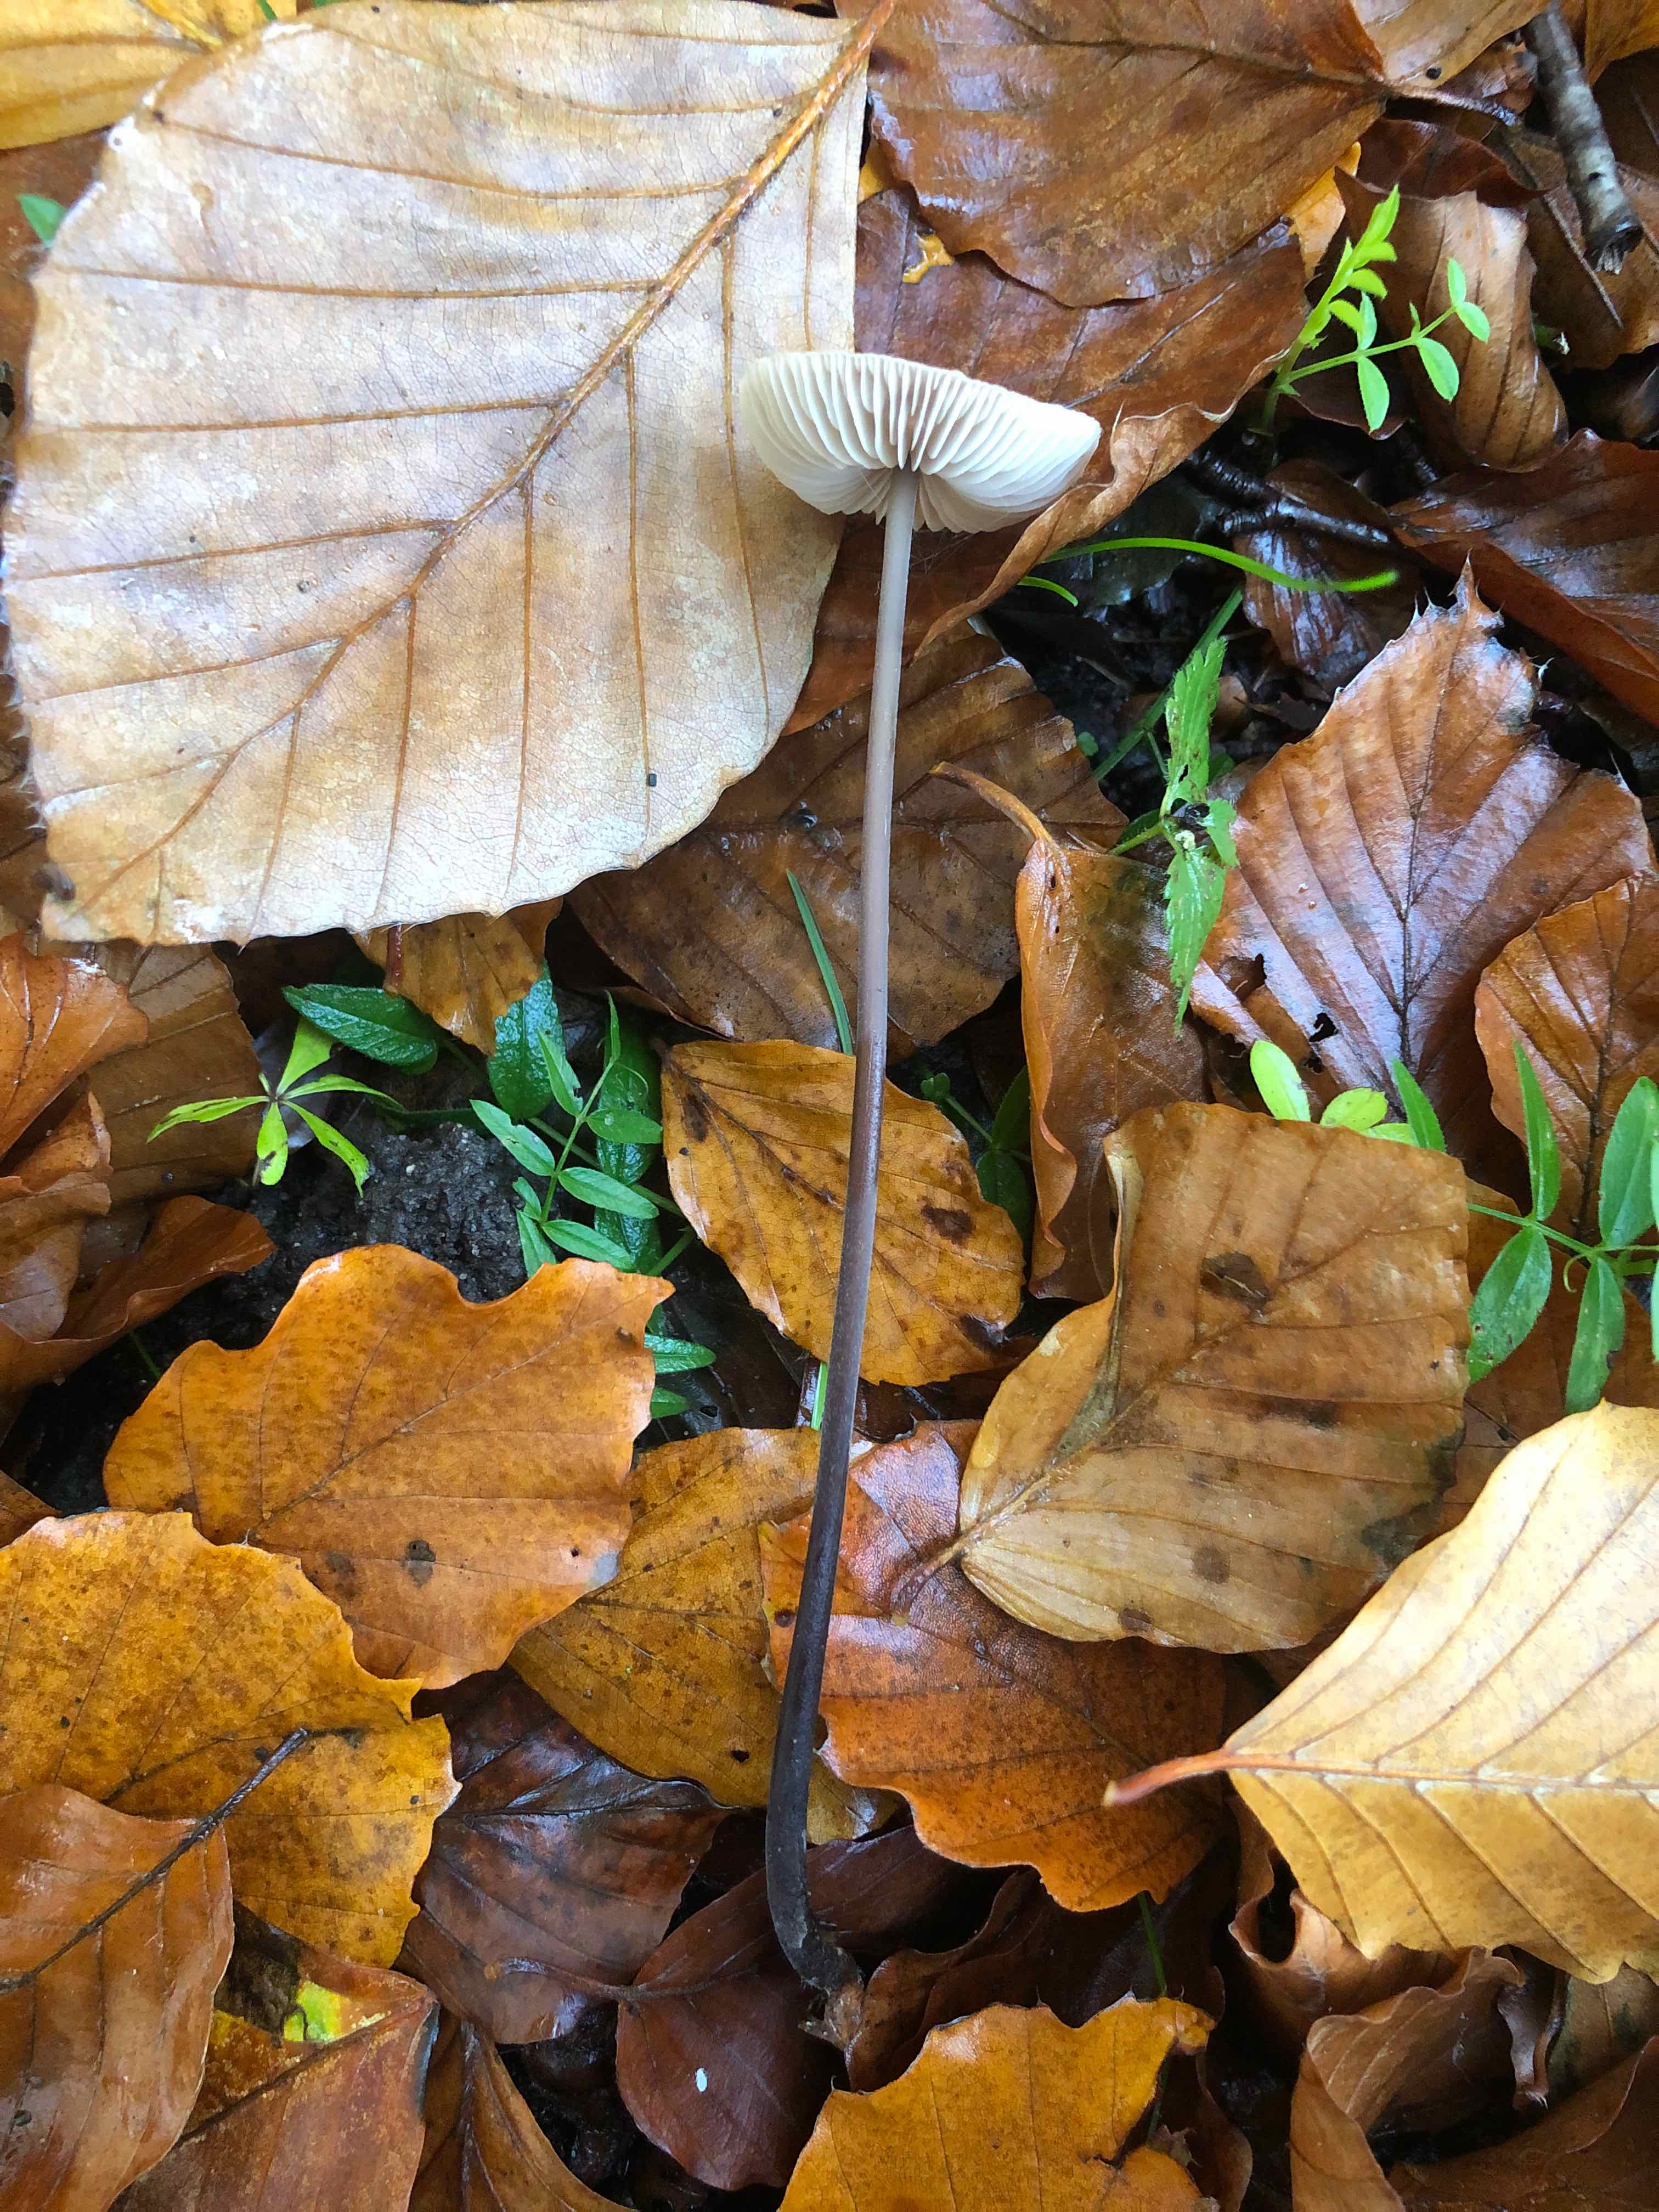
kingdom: Fungi
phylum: Basidiomycota
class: Agaricomycetes
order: Agaricales
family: Omphalotaceae
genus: Mycetinis
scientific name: Mycetinis alliaceus
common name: stor løghat
